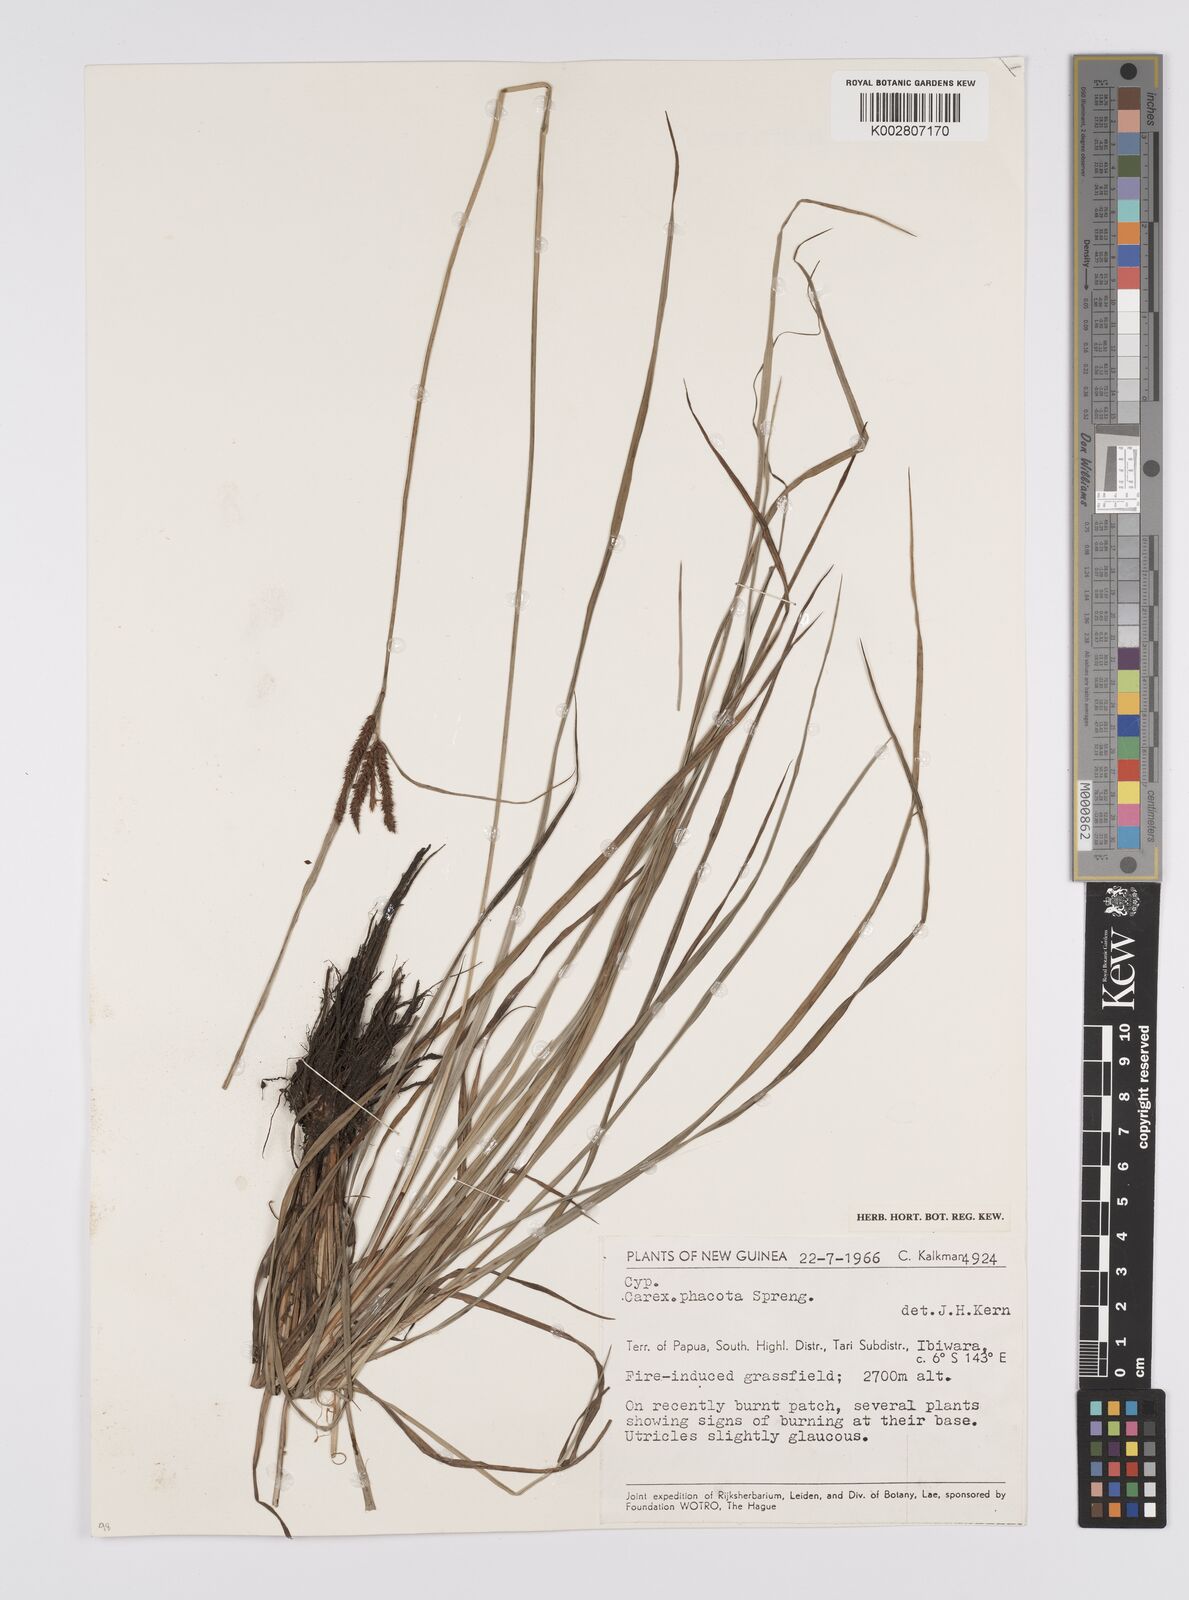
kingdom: Plantae
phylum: Tracheophyta
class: Liliopsida
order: Poales
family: Cyperaceae
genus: Carex
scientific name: Carex phacota
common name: Lakeshore sedge
